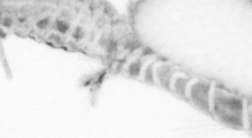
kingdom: Animalia
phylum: Annelida
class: Polychaeta
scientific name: Polychaeta
